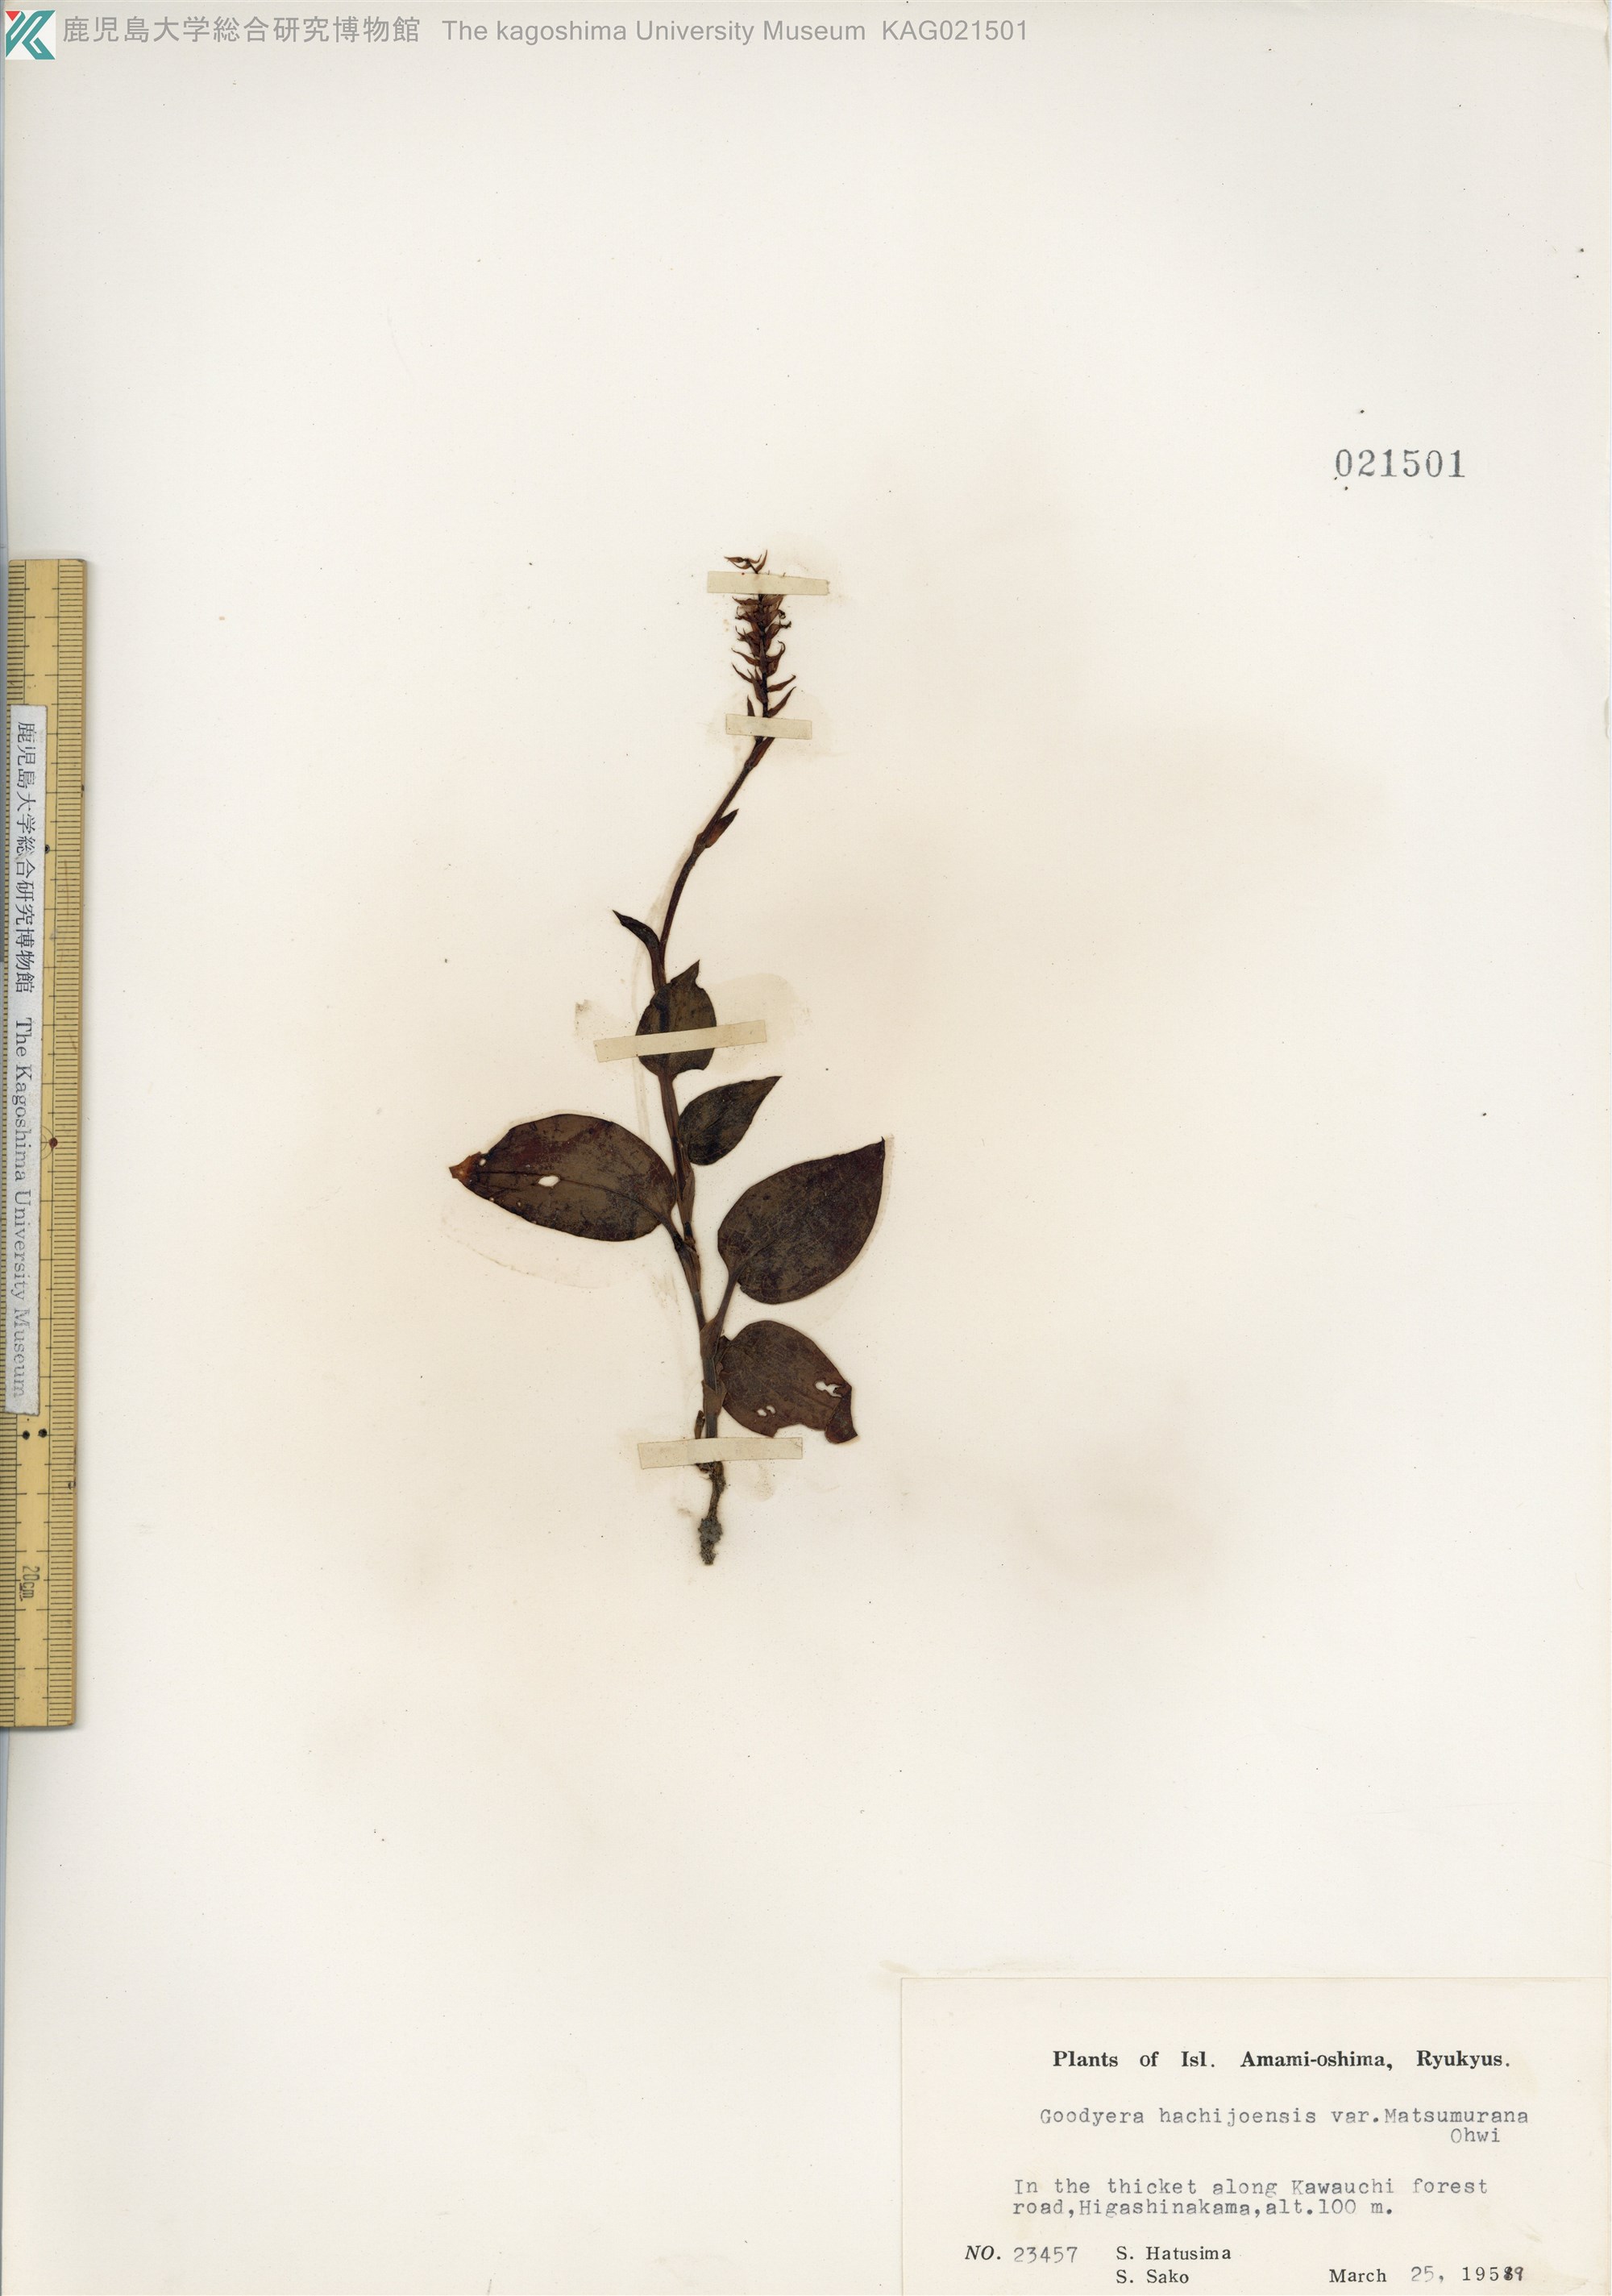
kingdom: Plantae
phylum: Tracheophyta
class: Liliopsida
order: Asparagales
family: Orchidaceae
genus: Goodyera
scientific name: Goodyera hachijoensis
